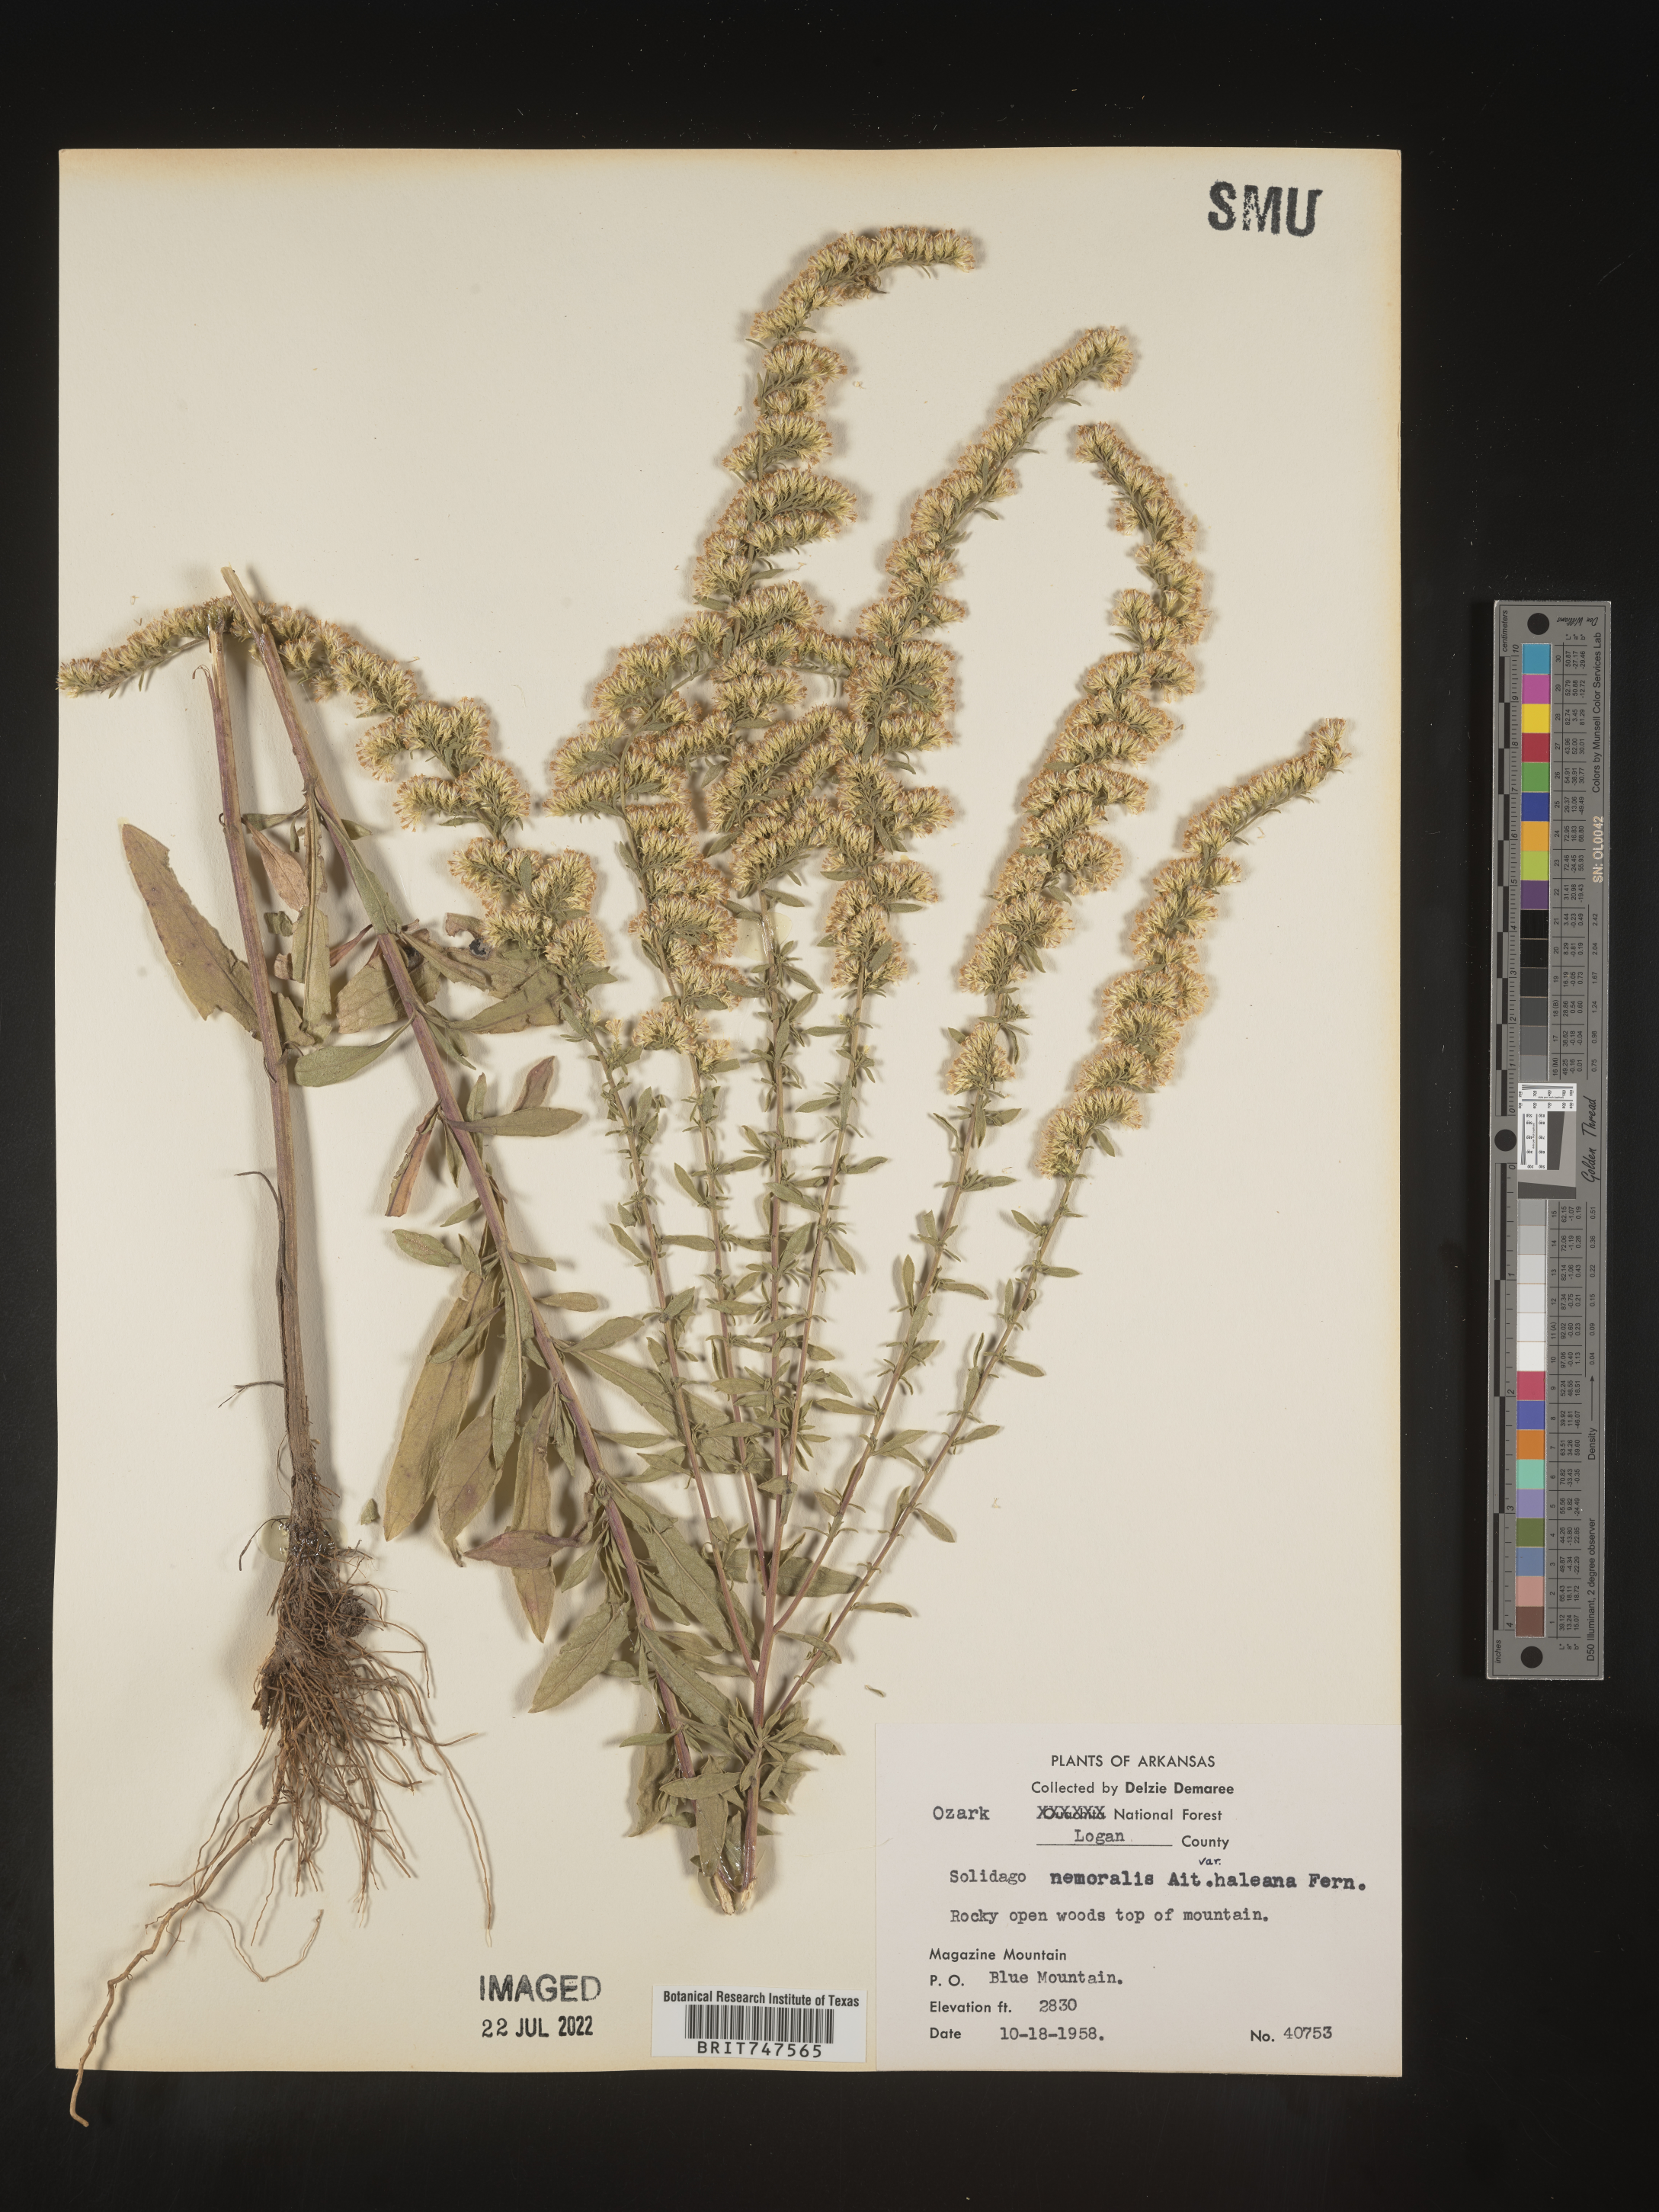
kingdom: Plantae
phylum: Tracheophyta
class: Magnoliopsida
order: Asterales
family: Asteraceae
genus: Solidago
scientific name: Solidago nemoralis
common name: Grey goldenrod
